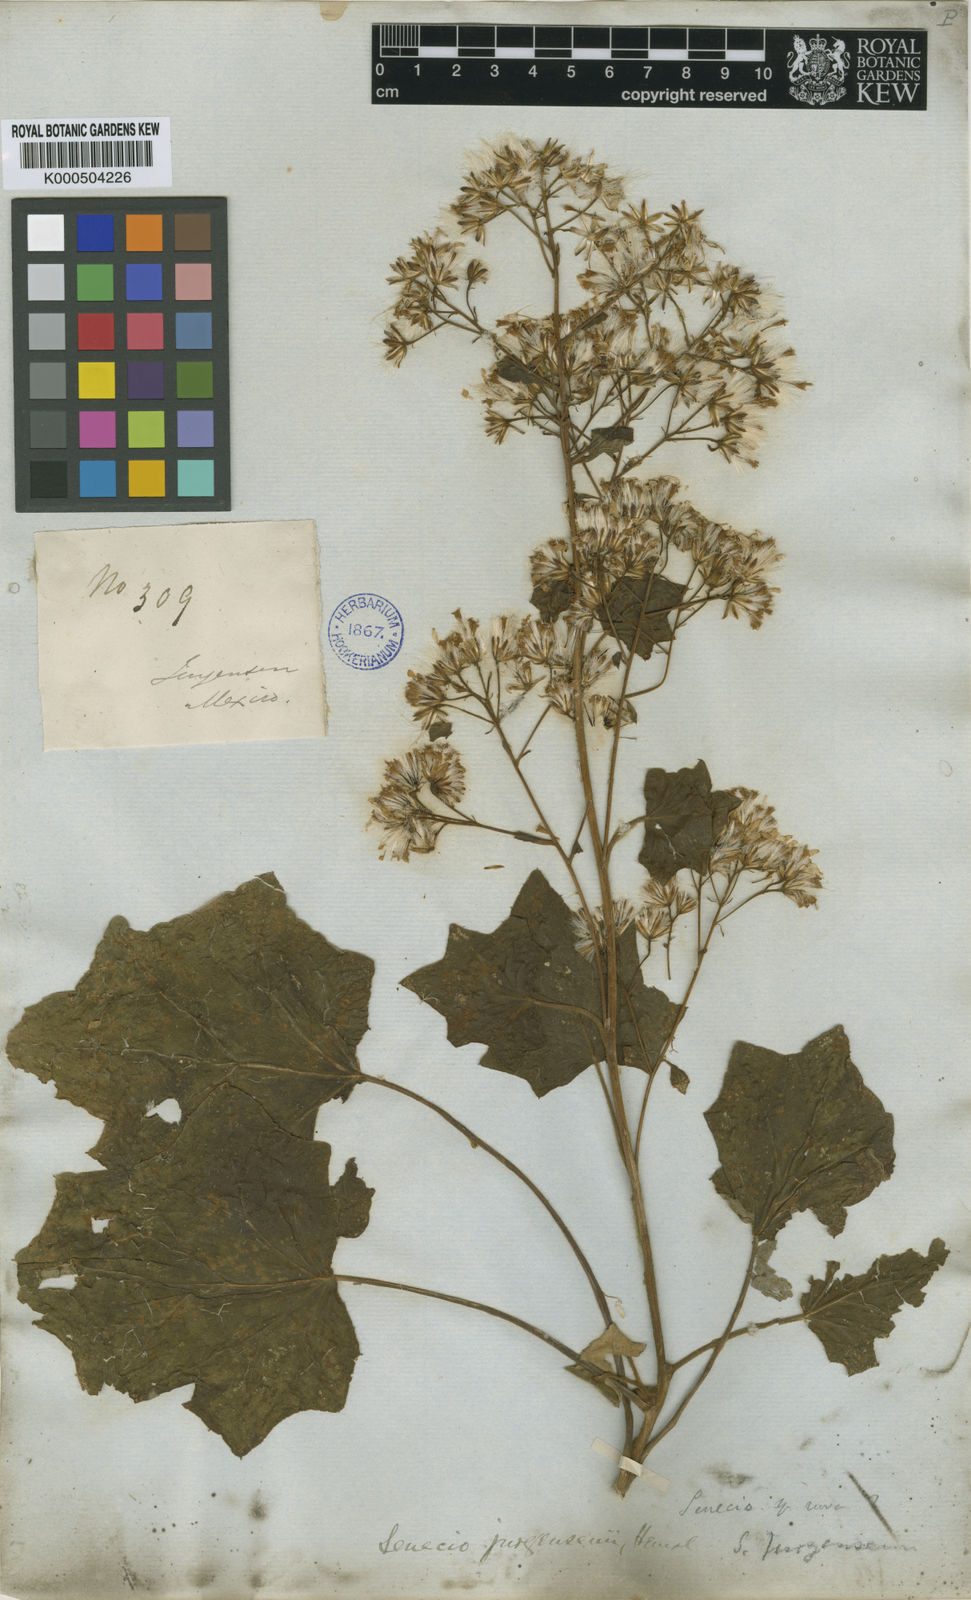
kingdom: Plantae
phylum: Tracheophyta
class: Magnoliopsida
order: Asterales
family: Asteraceae
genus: Roldana
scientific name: Roldana jurgensenii
